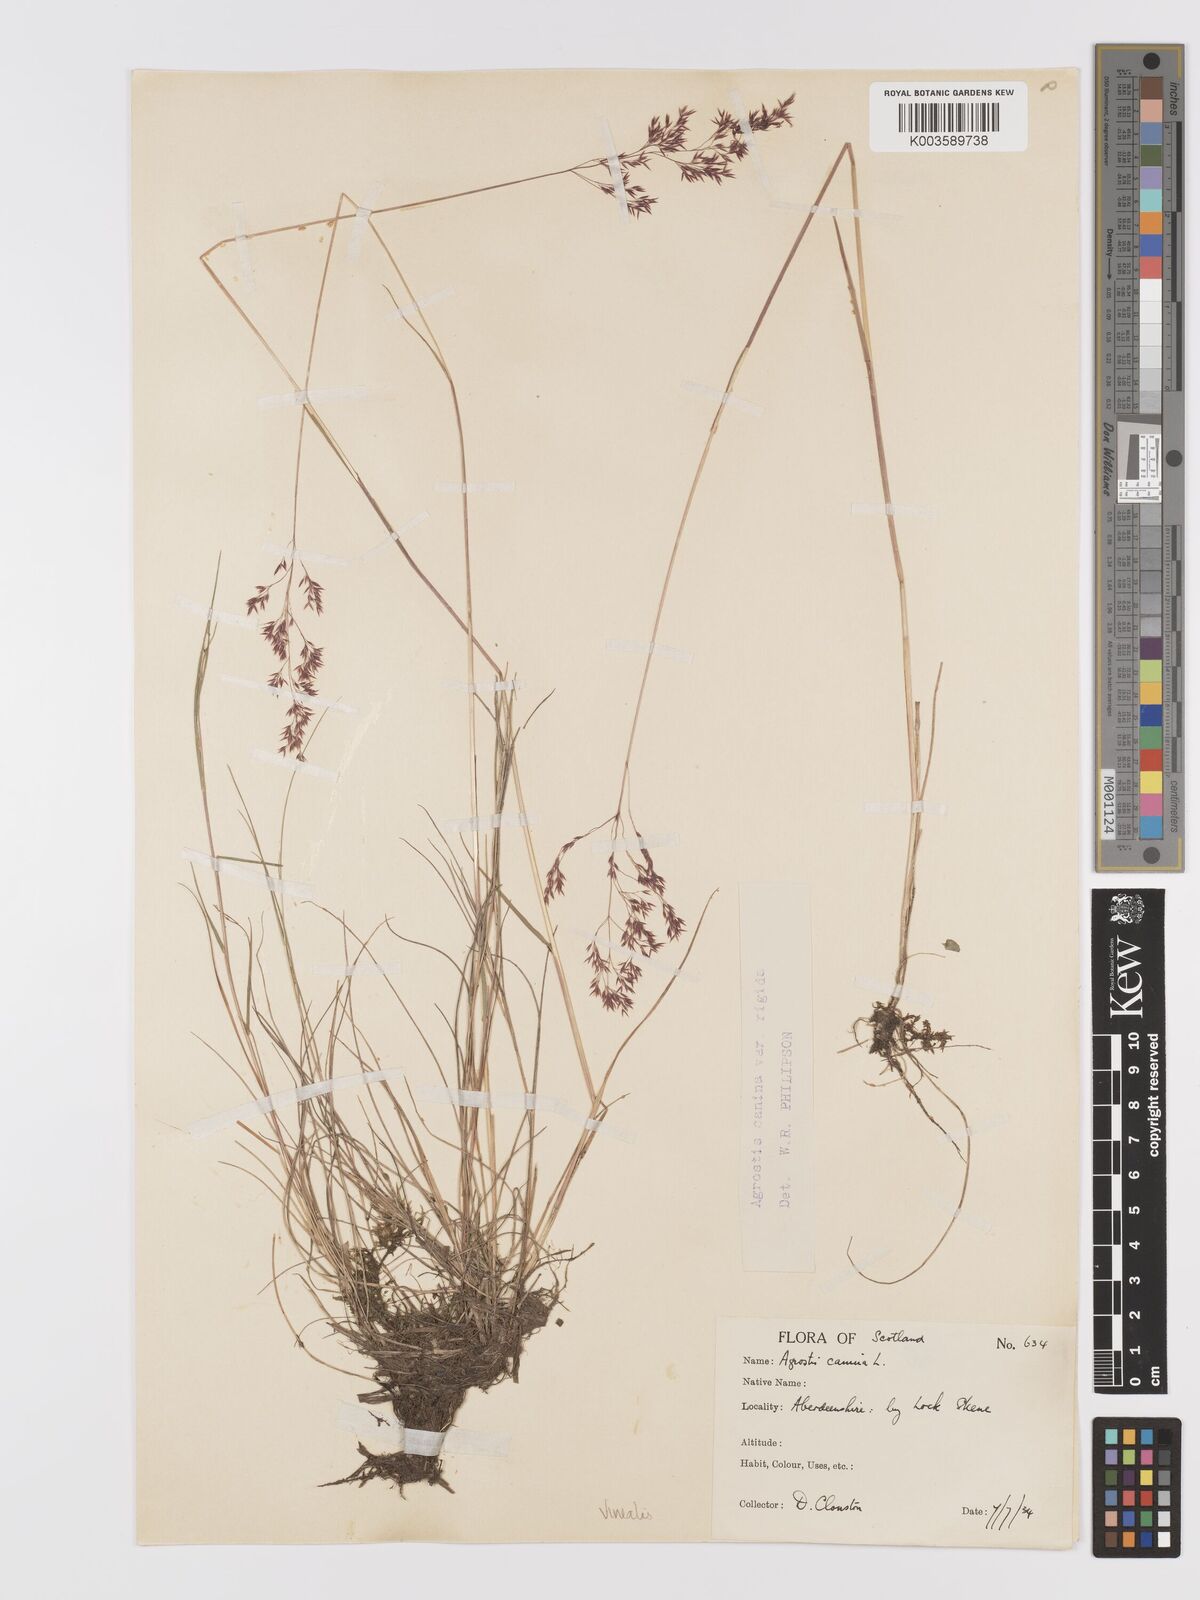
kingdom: Plantae
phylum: Tracheophyta
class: Liliopsida
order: Poales
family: Poaceae
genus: Agrostis
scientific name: Agrostis
